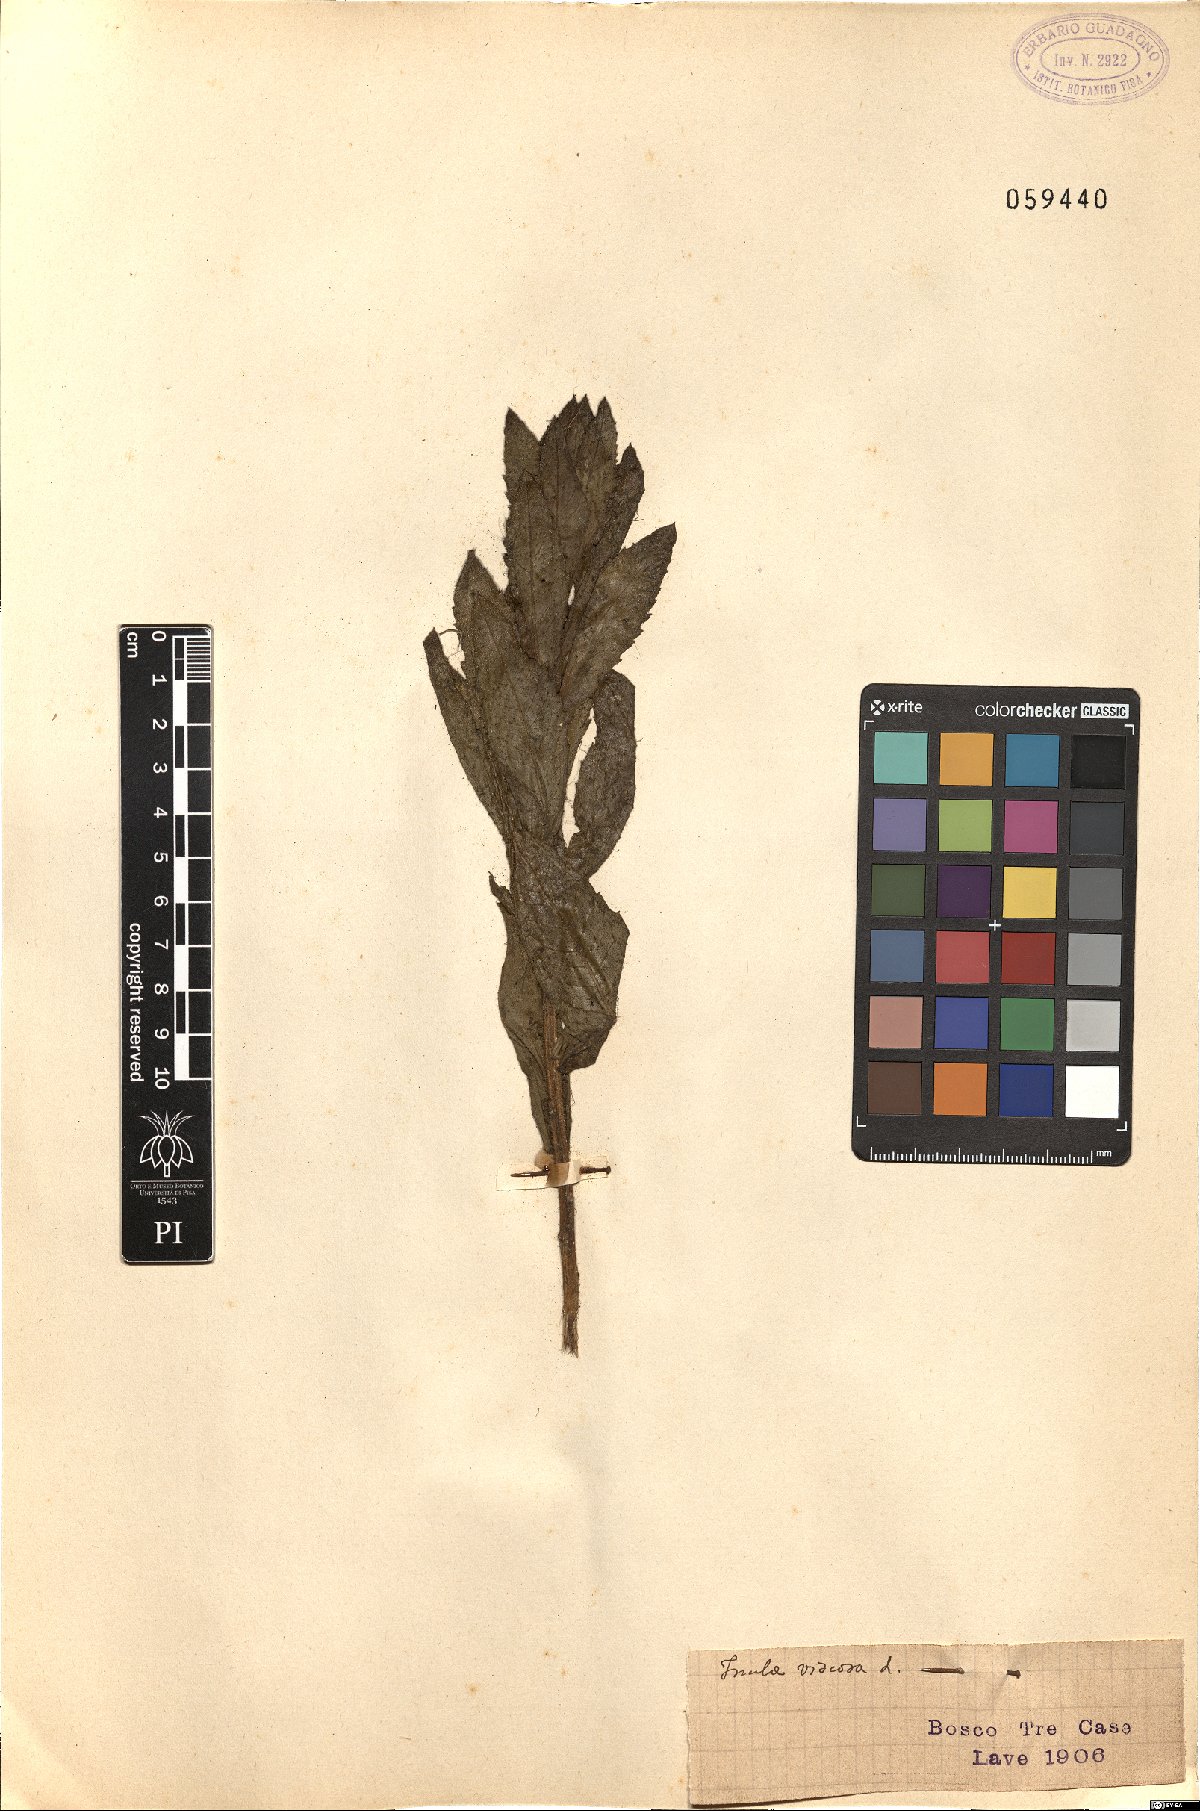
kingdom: Plantae
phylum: Tracheophyta
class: Magnoliopsida
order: Asterales
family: Asteraceae
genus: Dittrichia
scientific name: Dittrichia viscosa
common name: Woody fleabane
